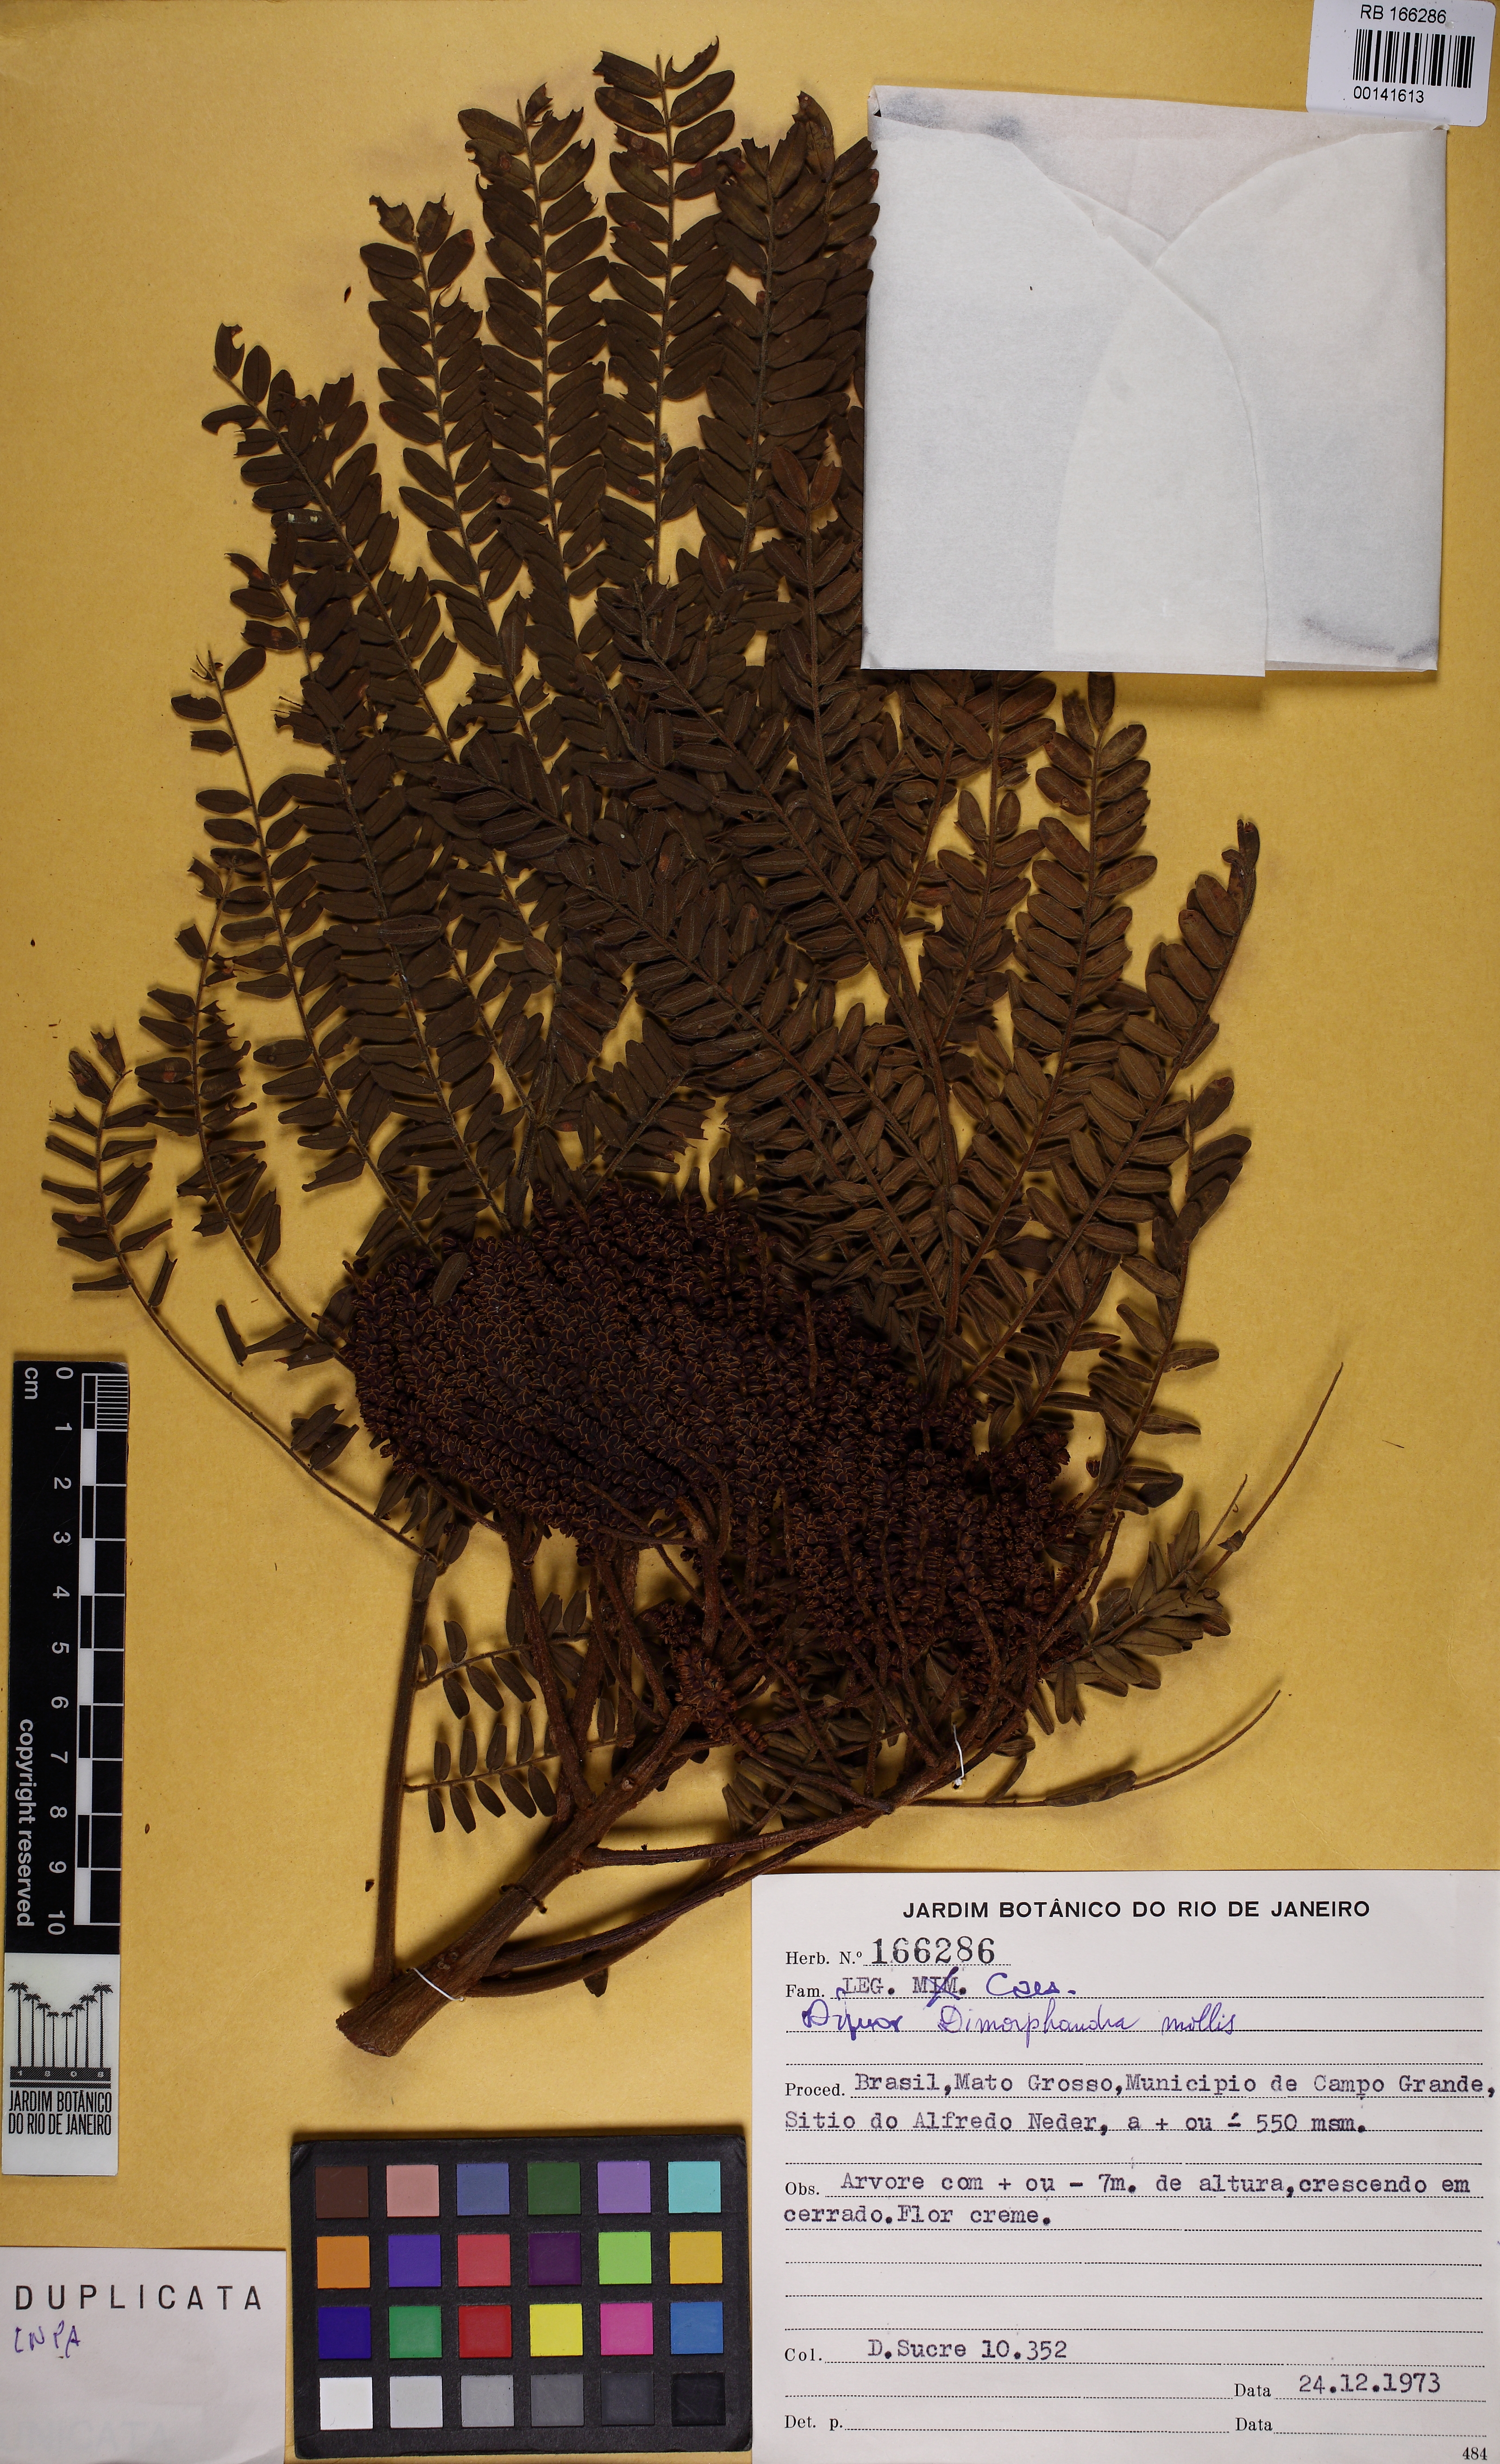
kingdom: Plantae
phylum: Tracheophyta
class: Magnoliopsida
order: Fabales
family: Fabaceae
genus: Dimorphandra
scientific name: Dimorphandra mollis
